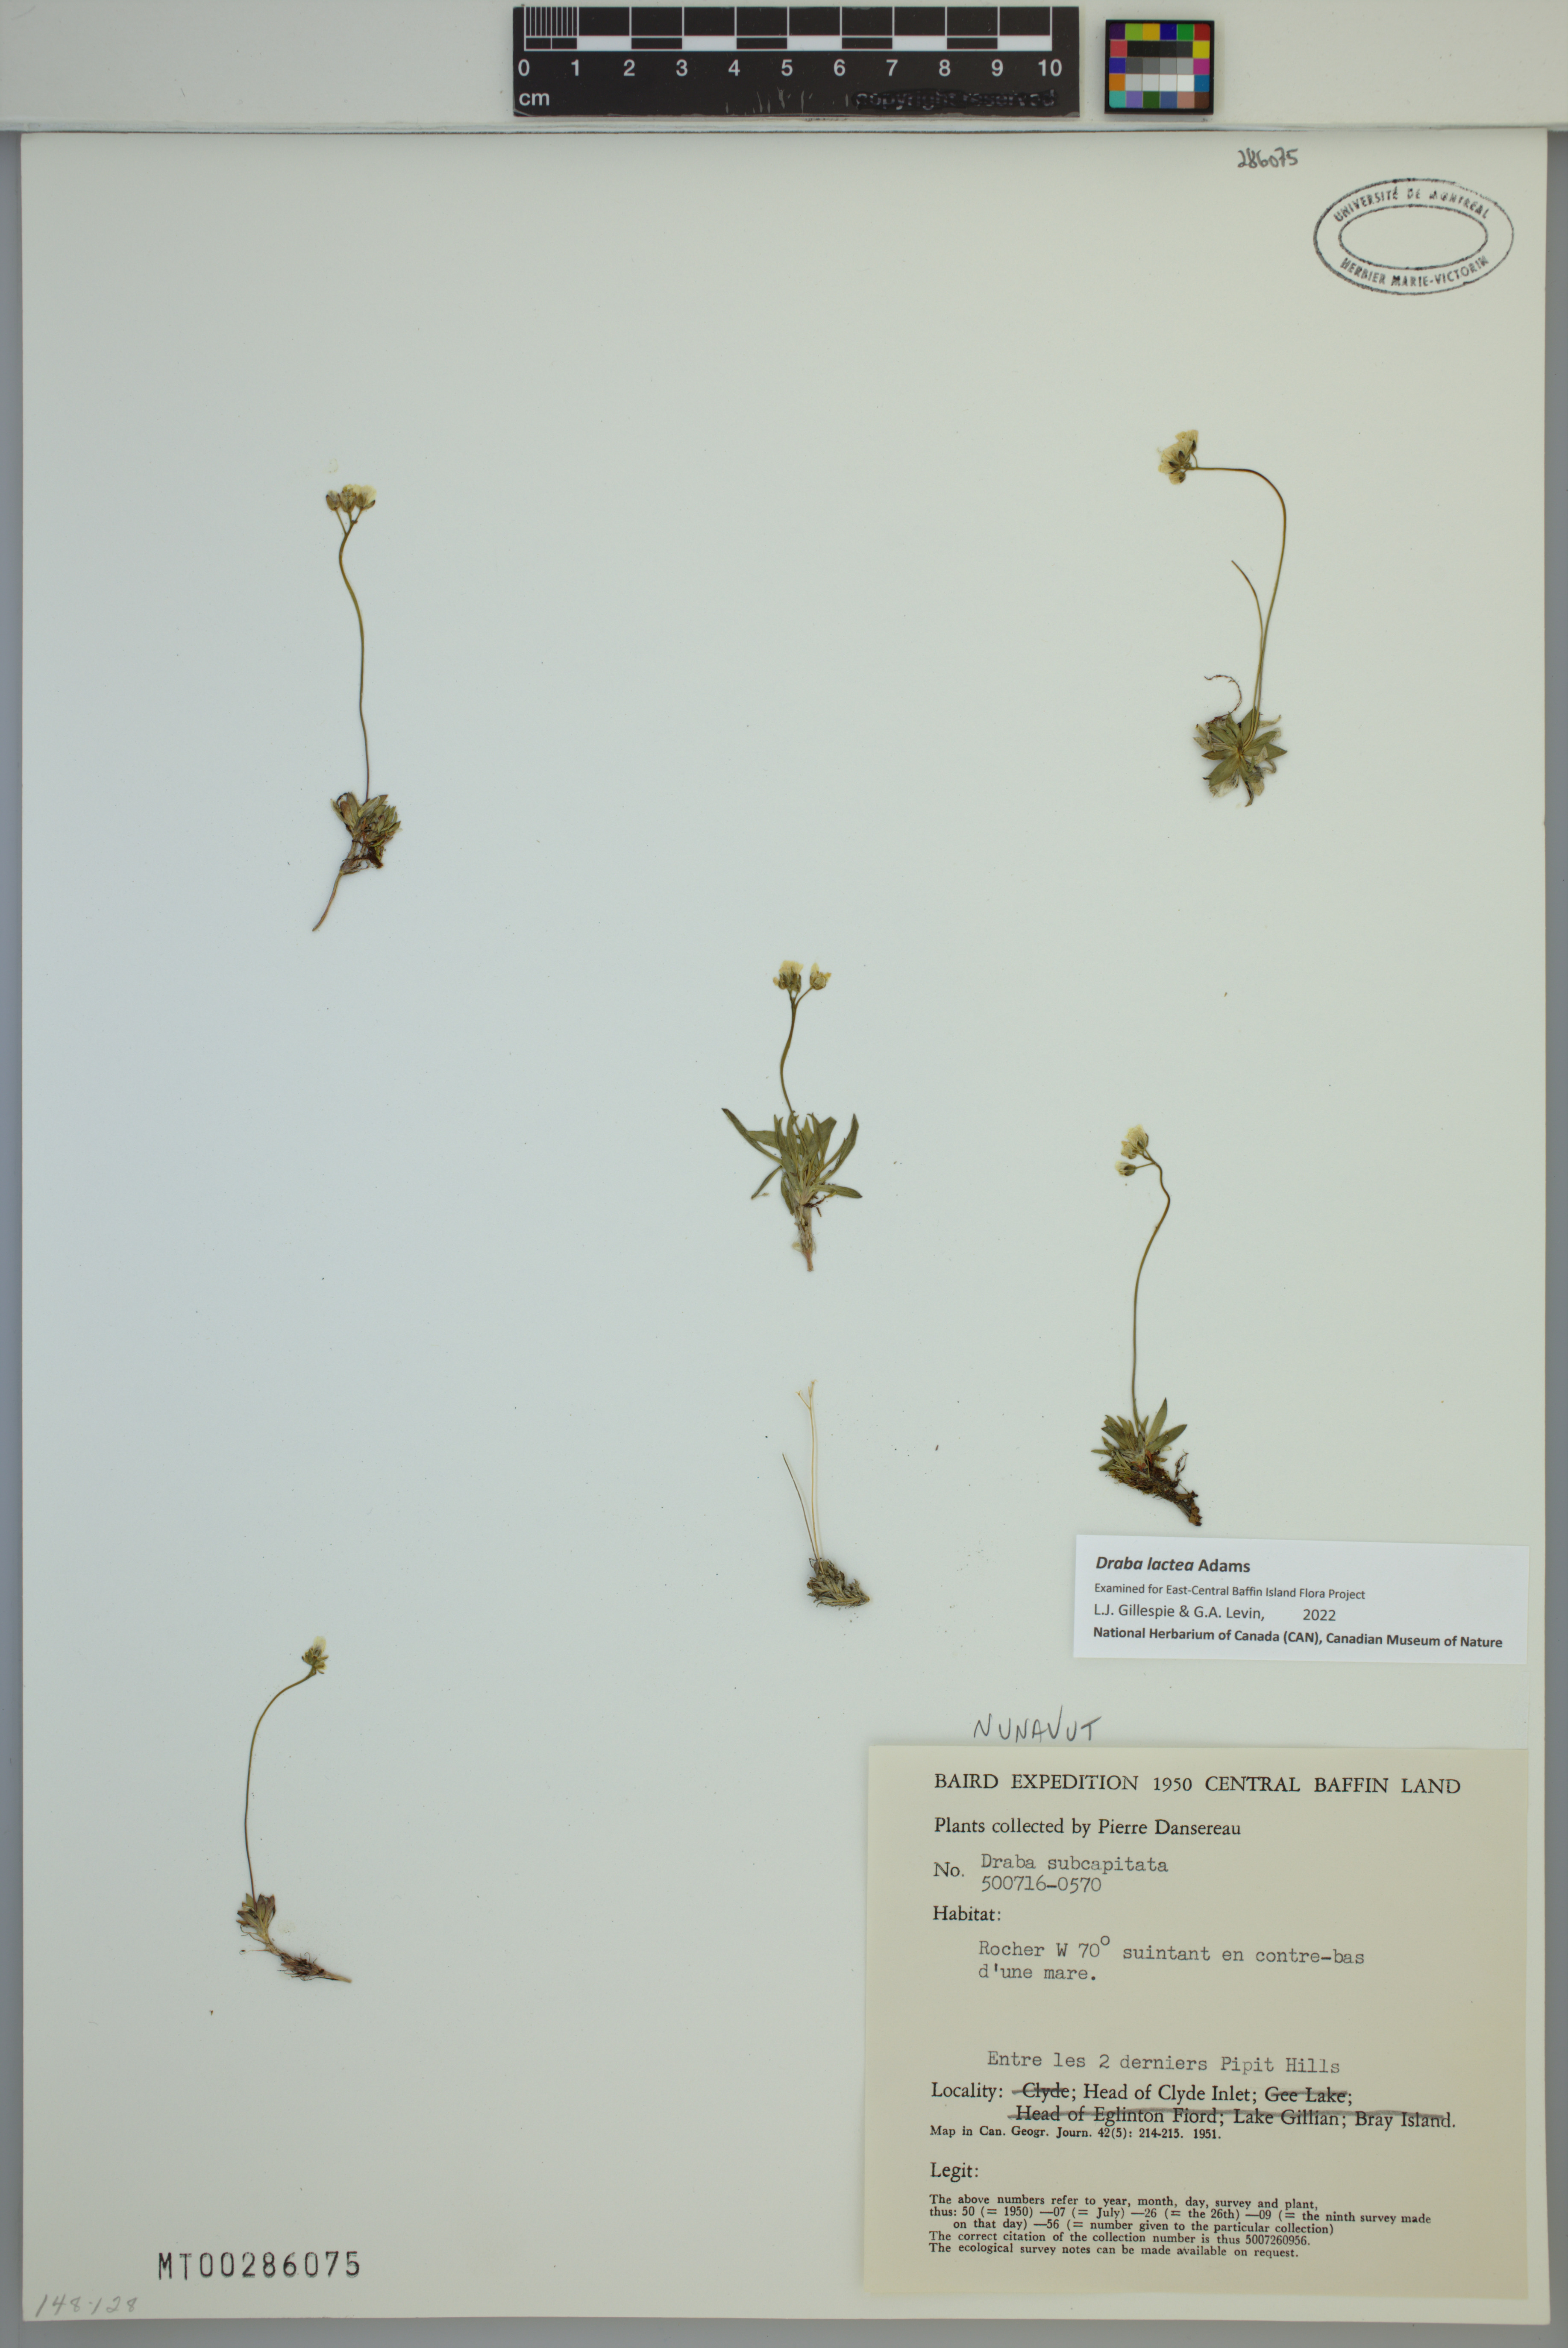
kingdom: Plantae
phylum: Tracheophyta
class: Magnoliopsida
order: Brassicales
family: Brassicaceae
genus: Draba
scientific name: Draba lactea
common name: Milky draba
